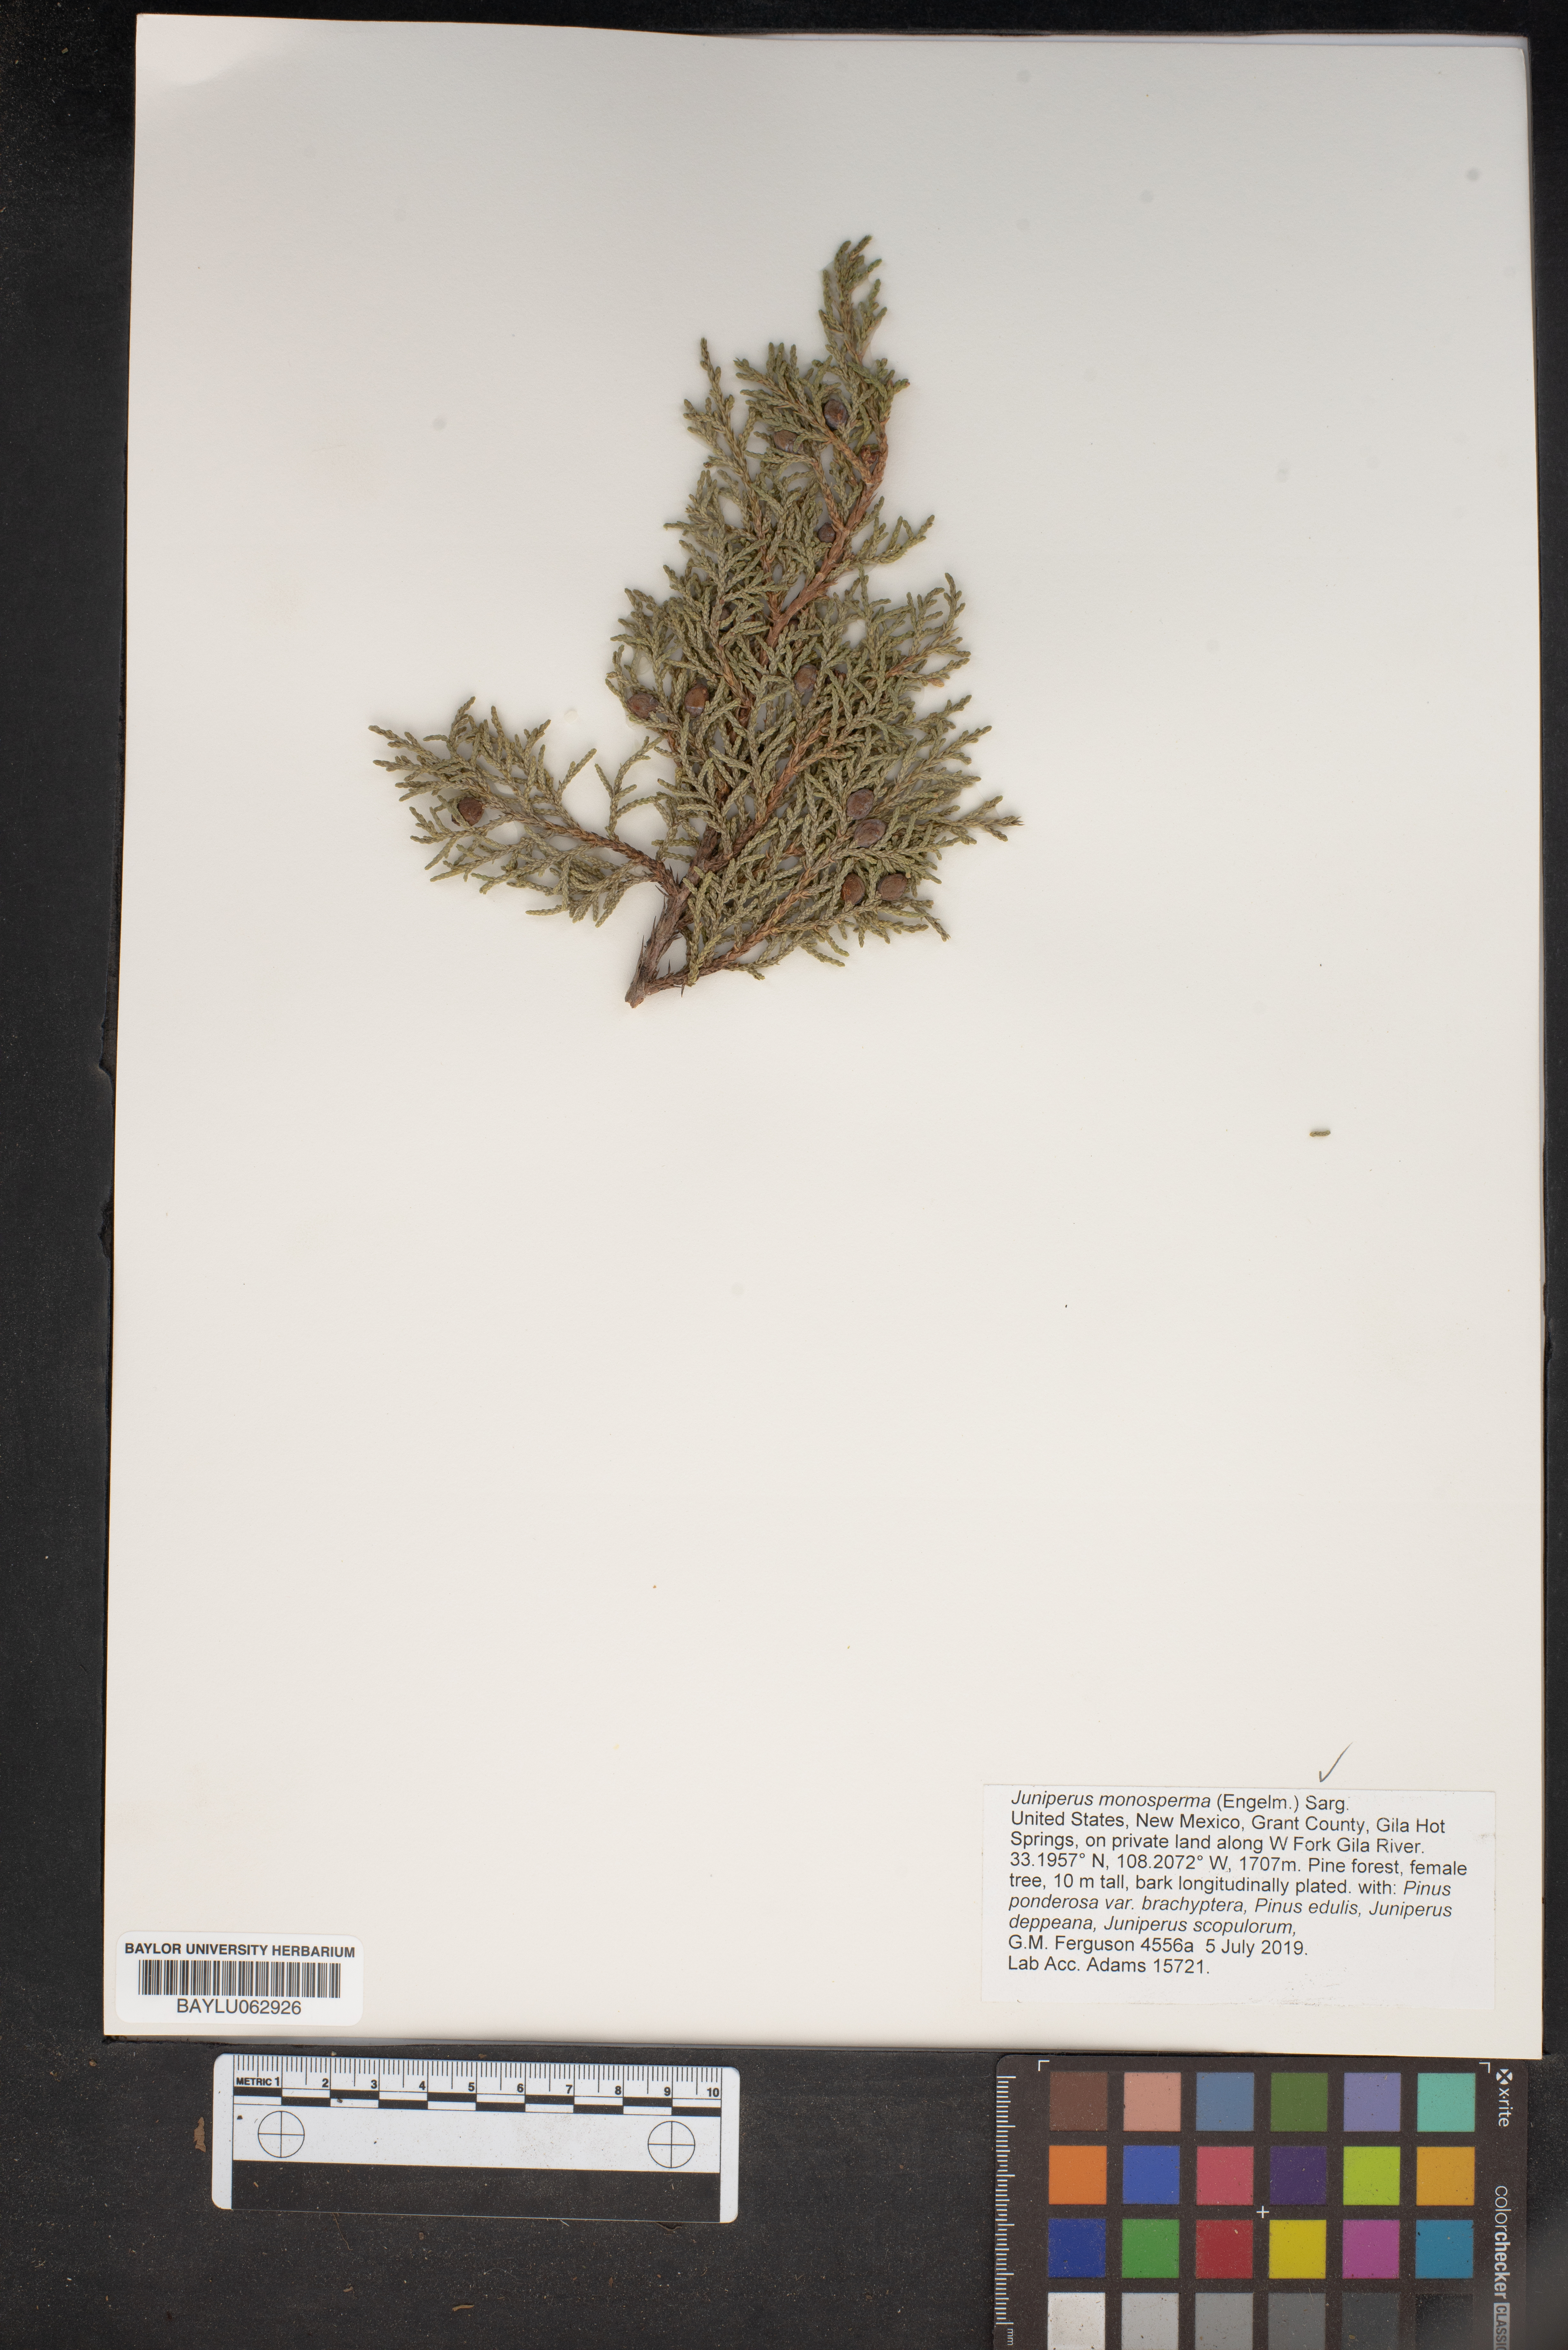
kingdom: Plantae
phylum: Tracheophyta
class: Pinopsida
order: Pinales
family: Cupressaceae
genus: Juniperus
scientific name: Juniperus monosperma
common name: One-seed juniper
